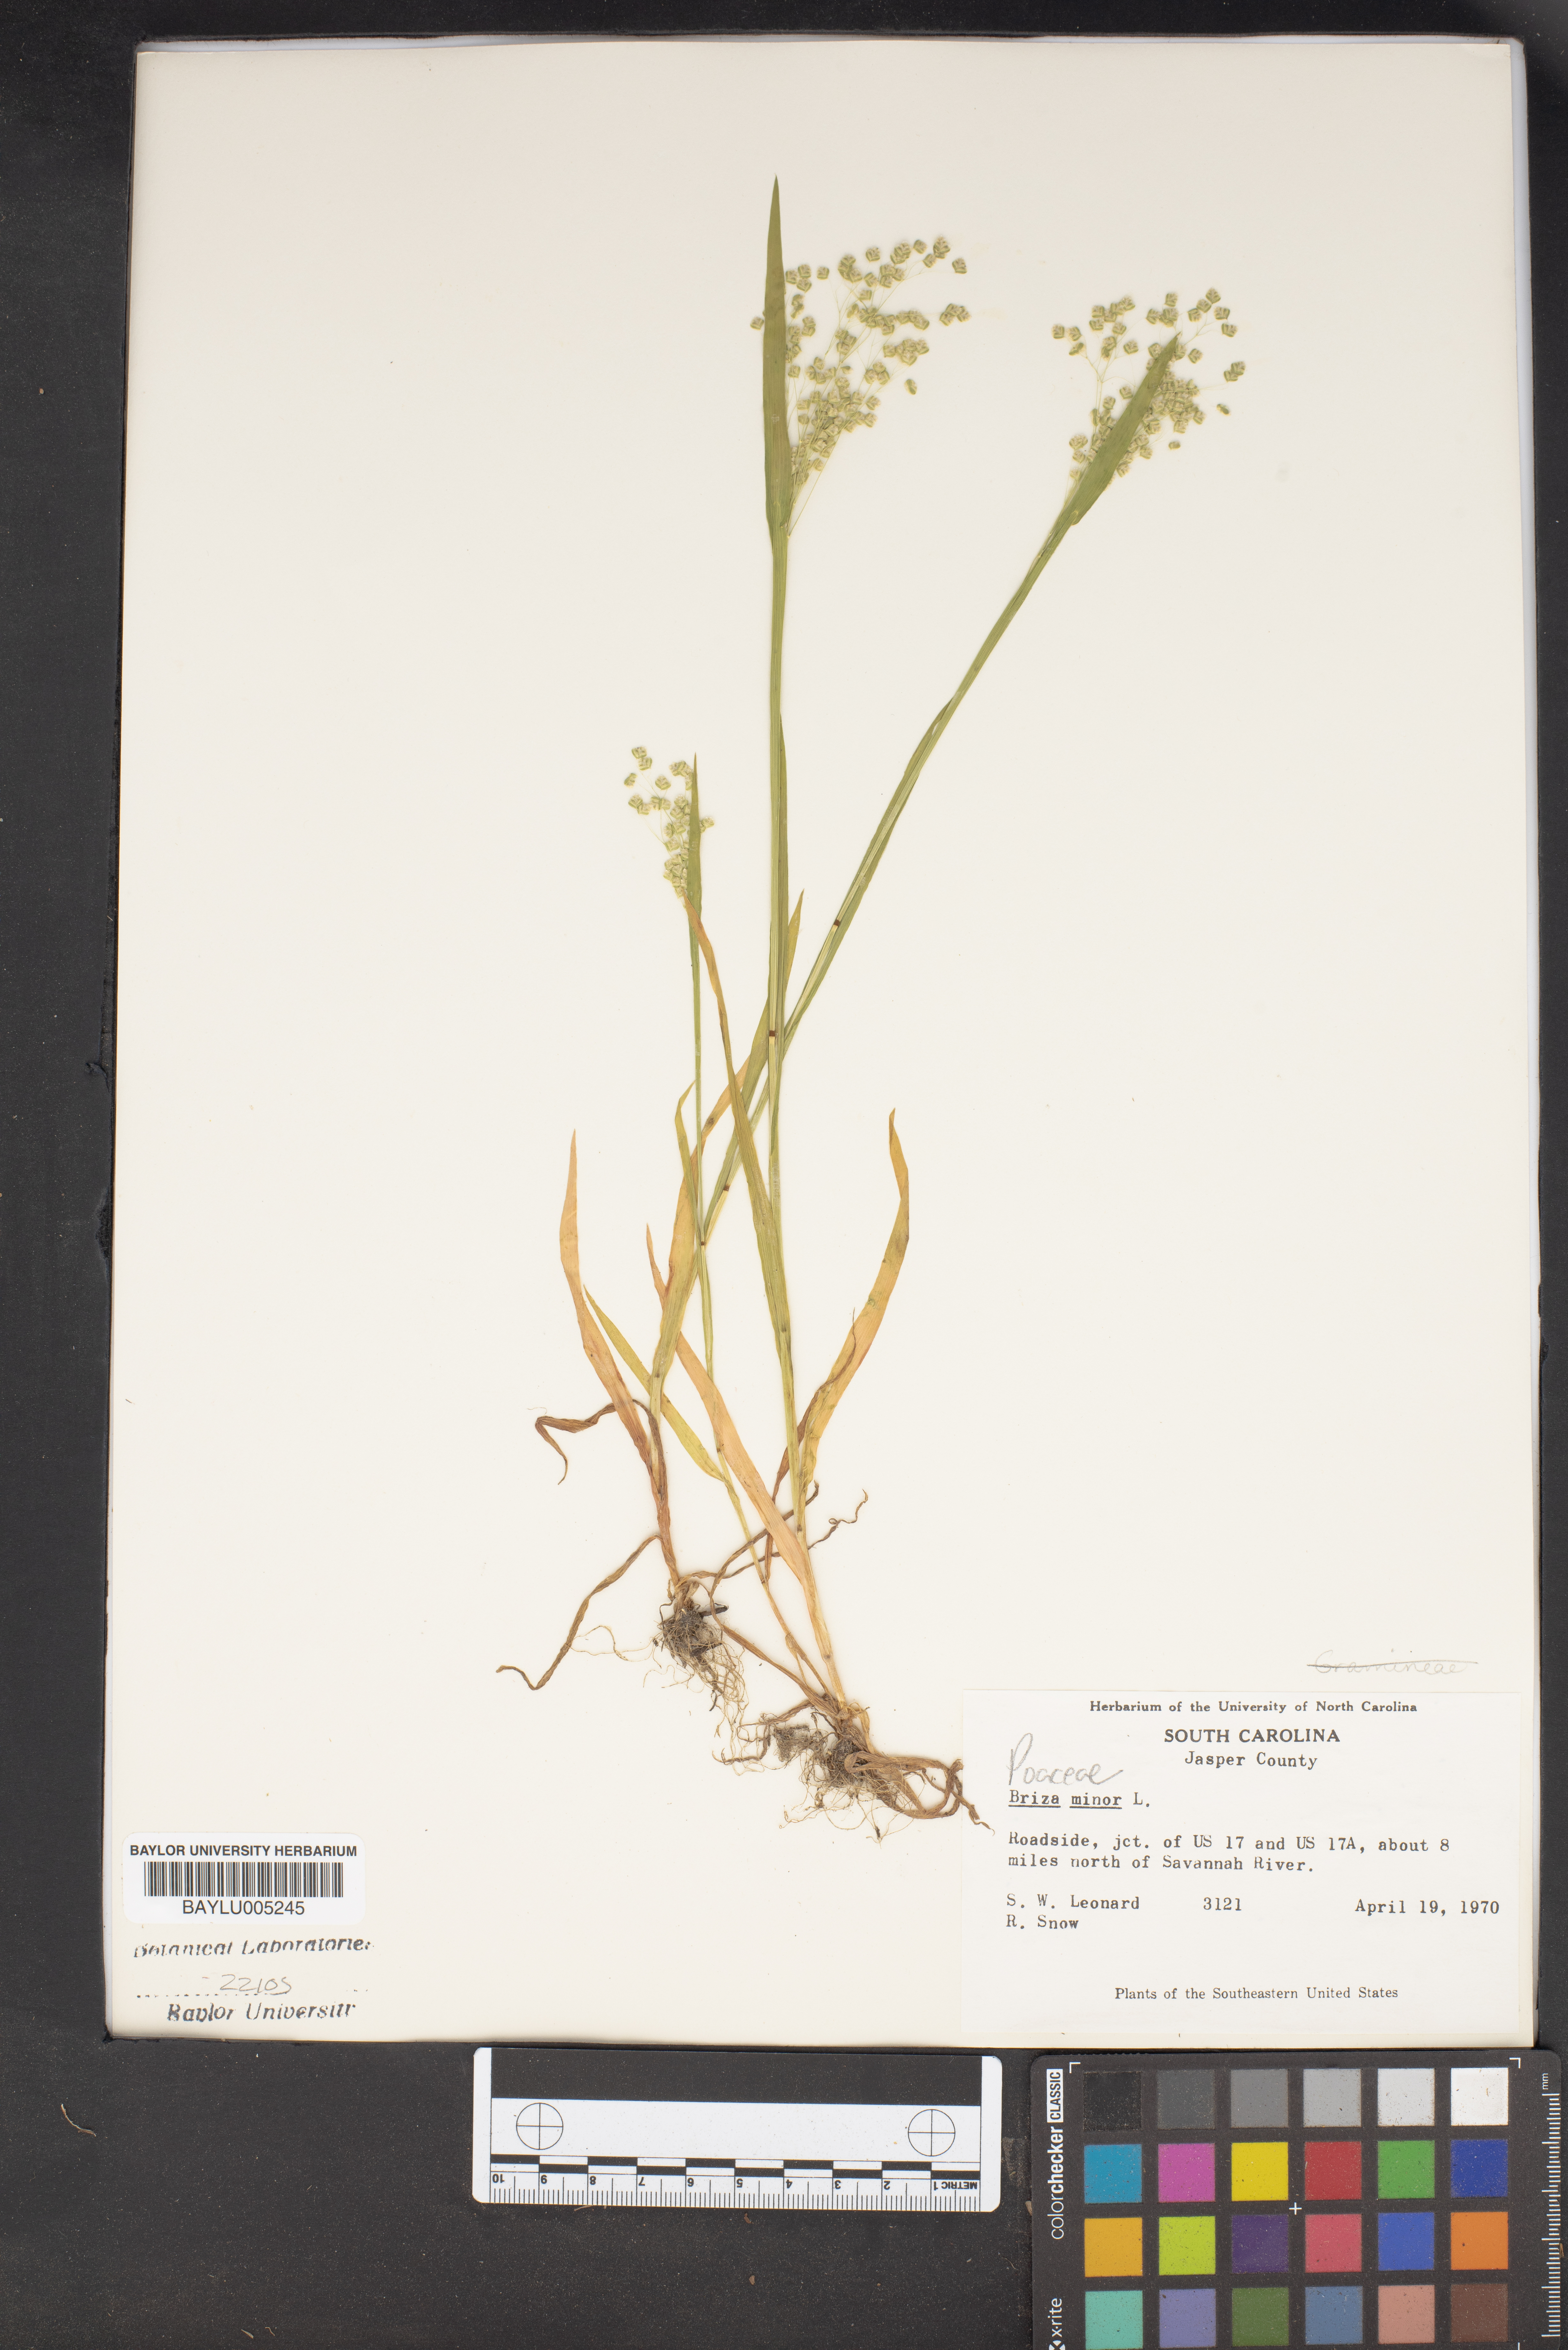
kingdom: Plantae
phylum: Tracheophyta
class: Liliopsida
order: Poales
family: Poaceae
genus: Briza
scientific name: Briza minor
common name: Lesser quaking-grass
